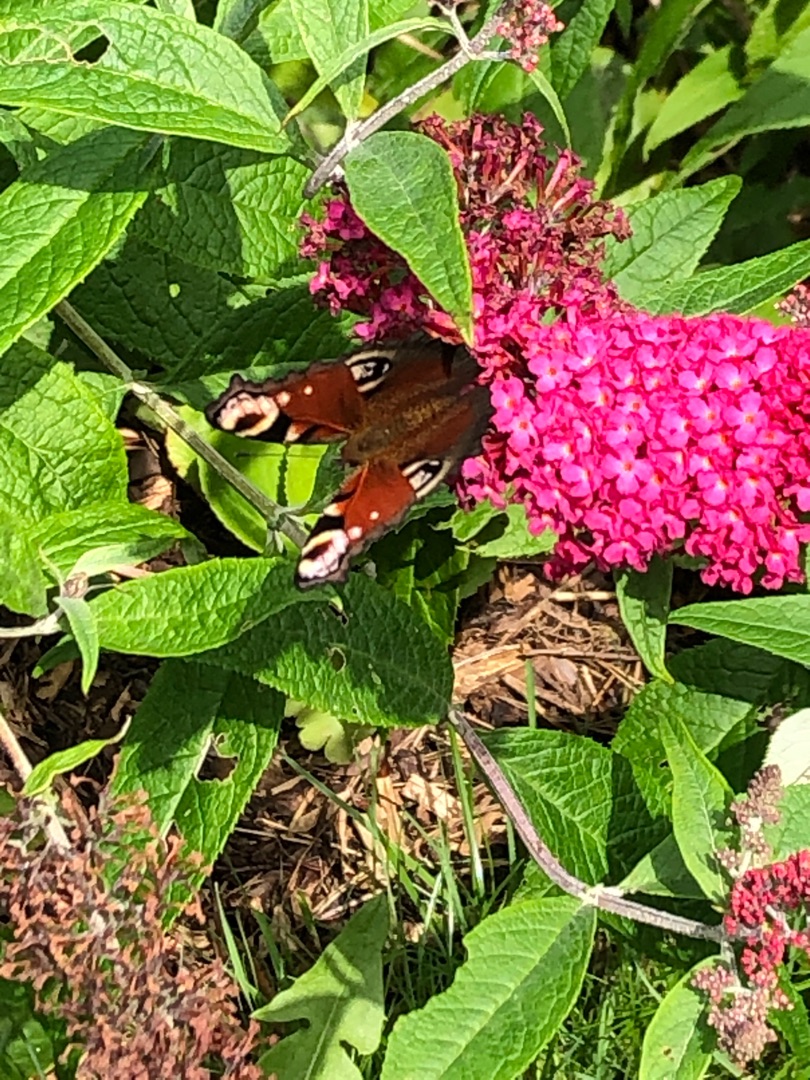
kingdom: Animalia
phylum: Arthropoda
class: Insecta
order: Lepidoptera
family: Nymphalidae
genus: Aglais
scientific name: Aglais io
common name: Dagpåfugleøje
